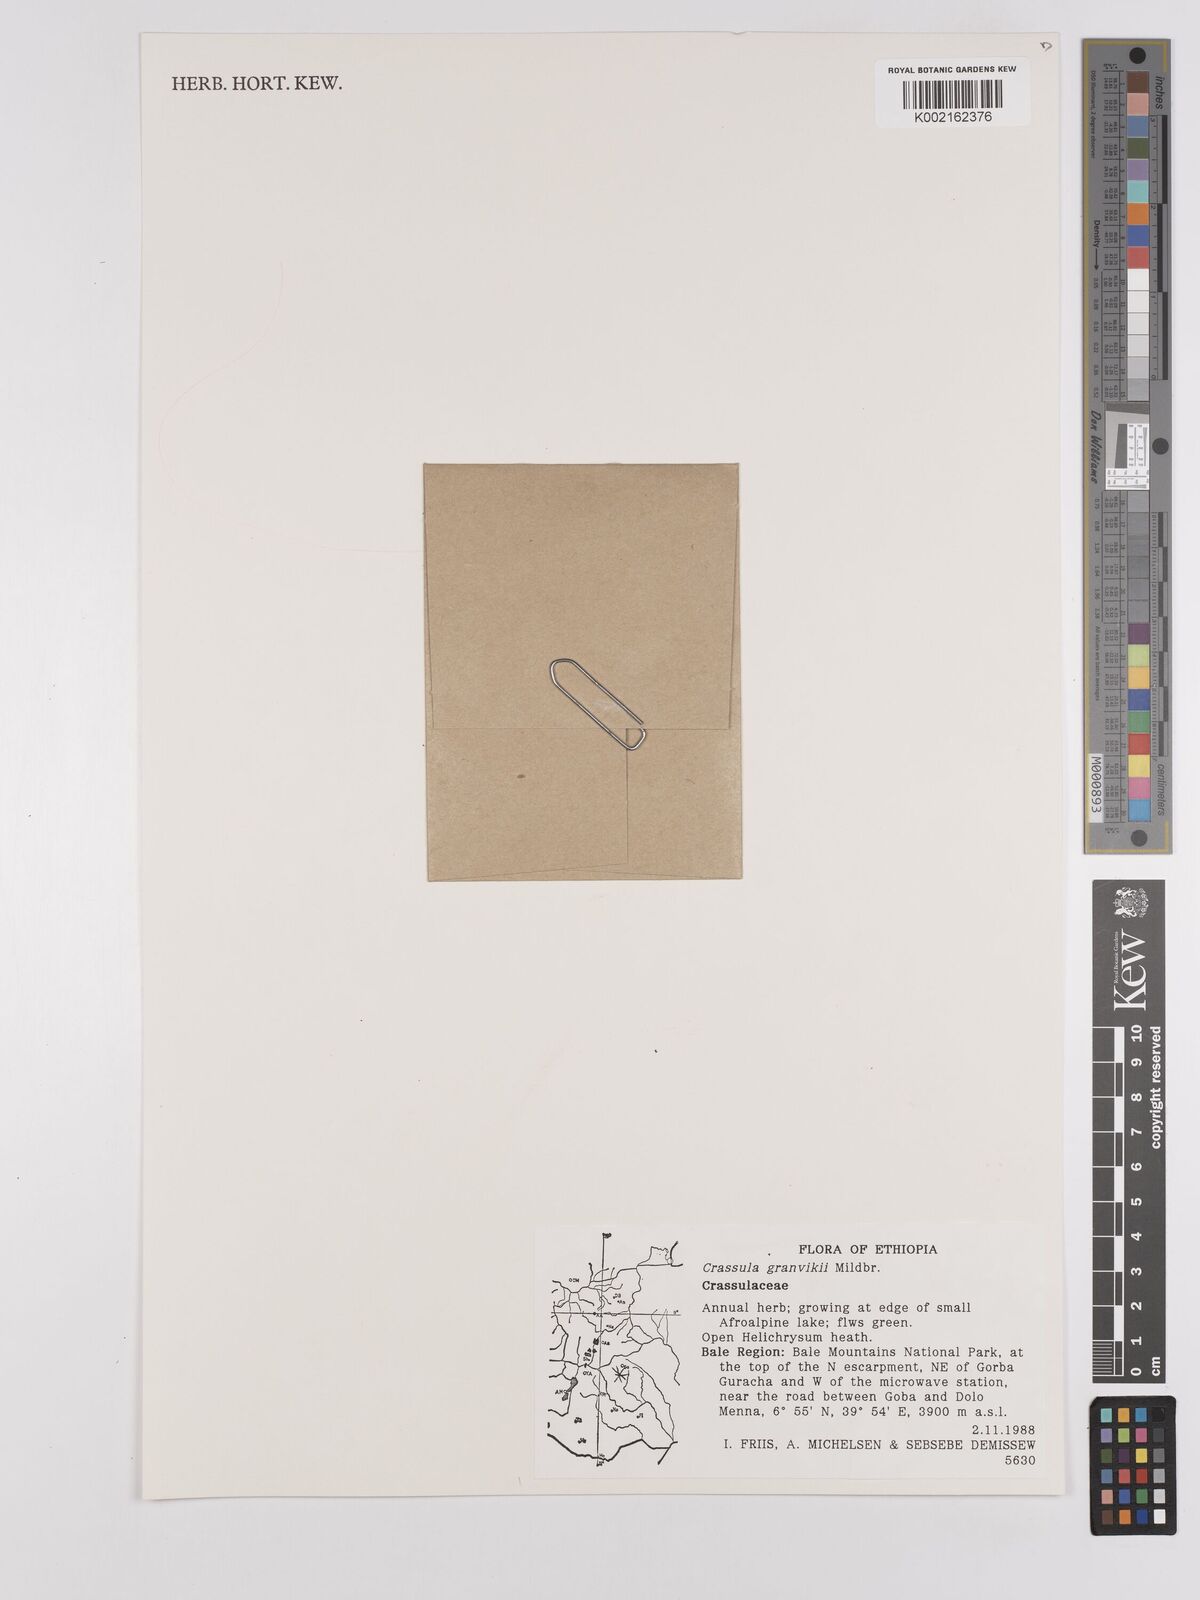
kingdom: Plantae
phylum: Tracheophyta
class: Magnoliopsida
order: Saxifragales
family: Crassulaceae
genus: Crassula
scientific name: Crassula granvikii
